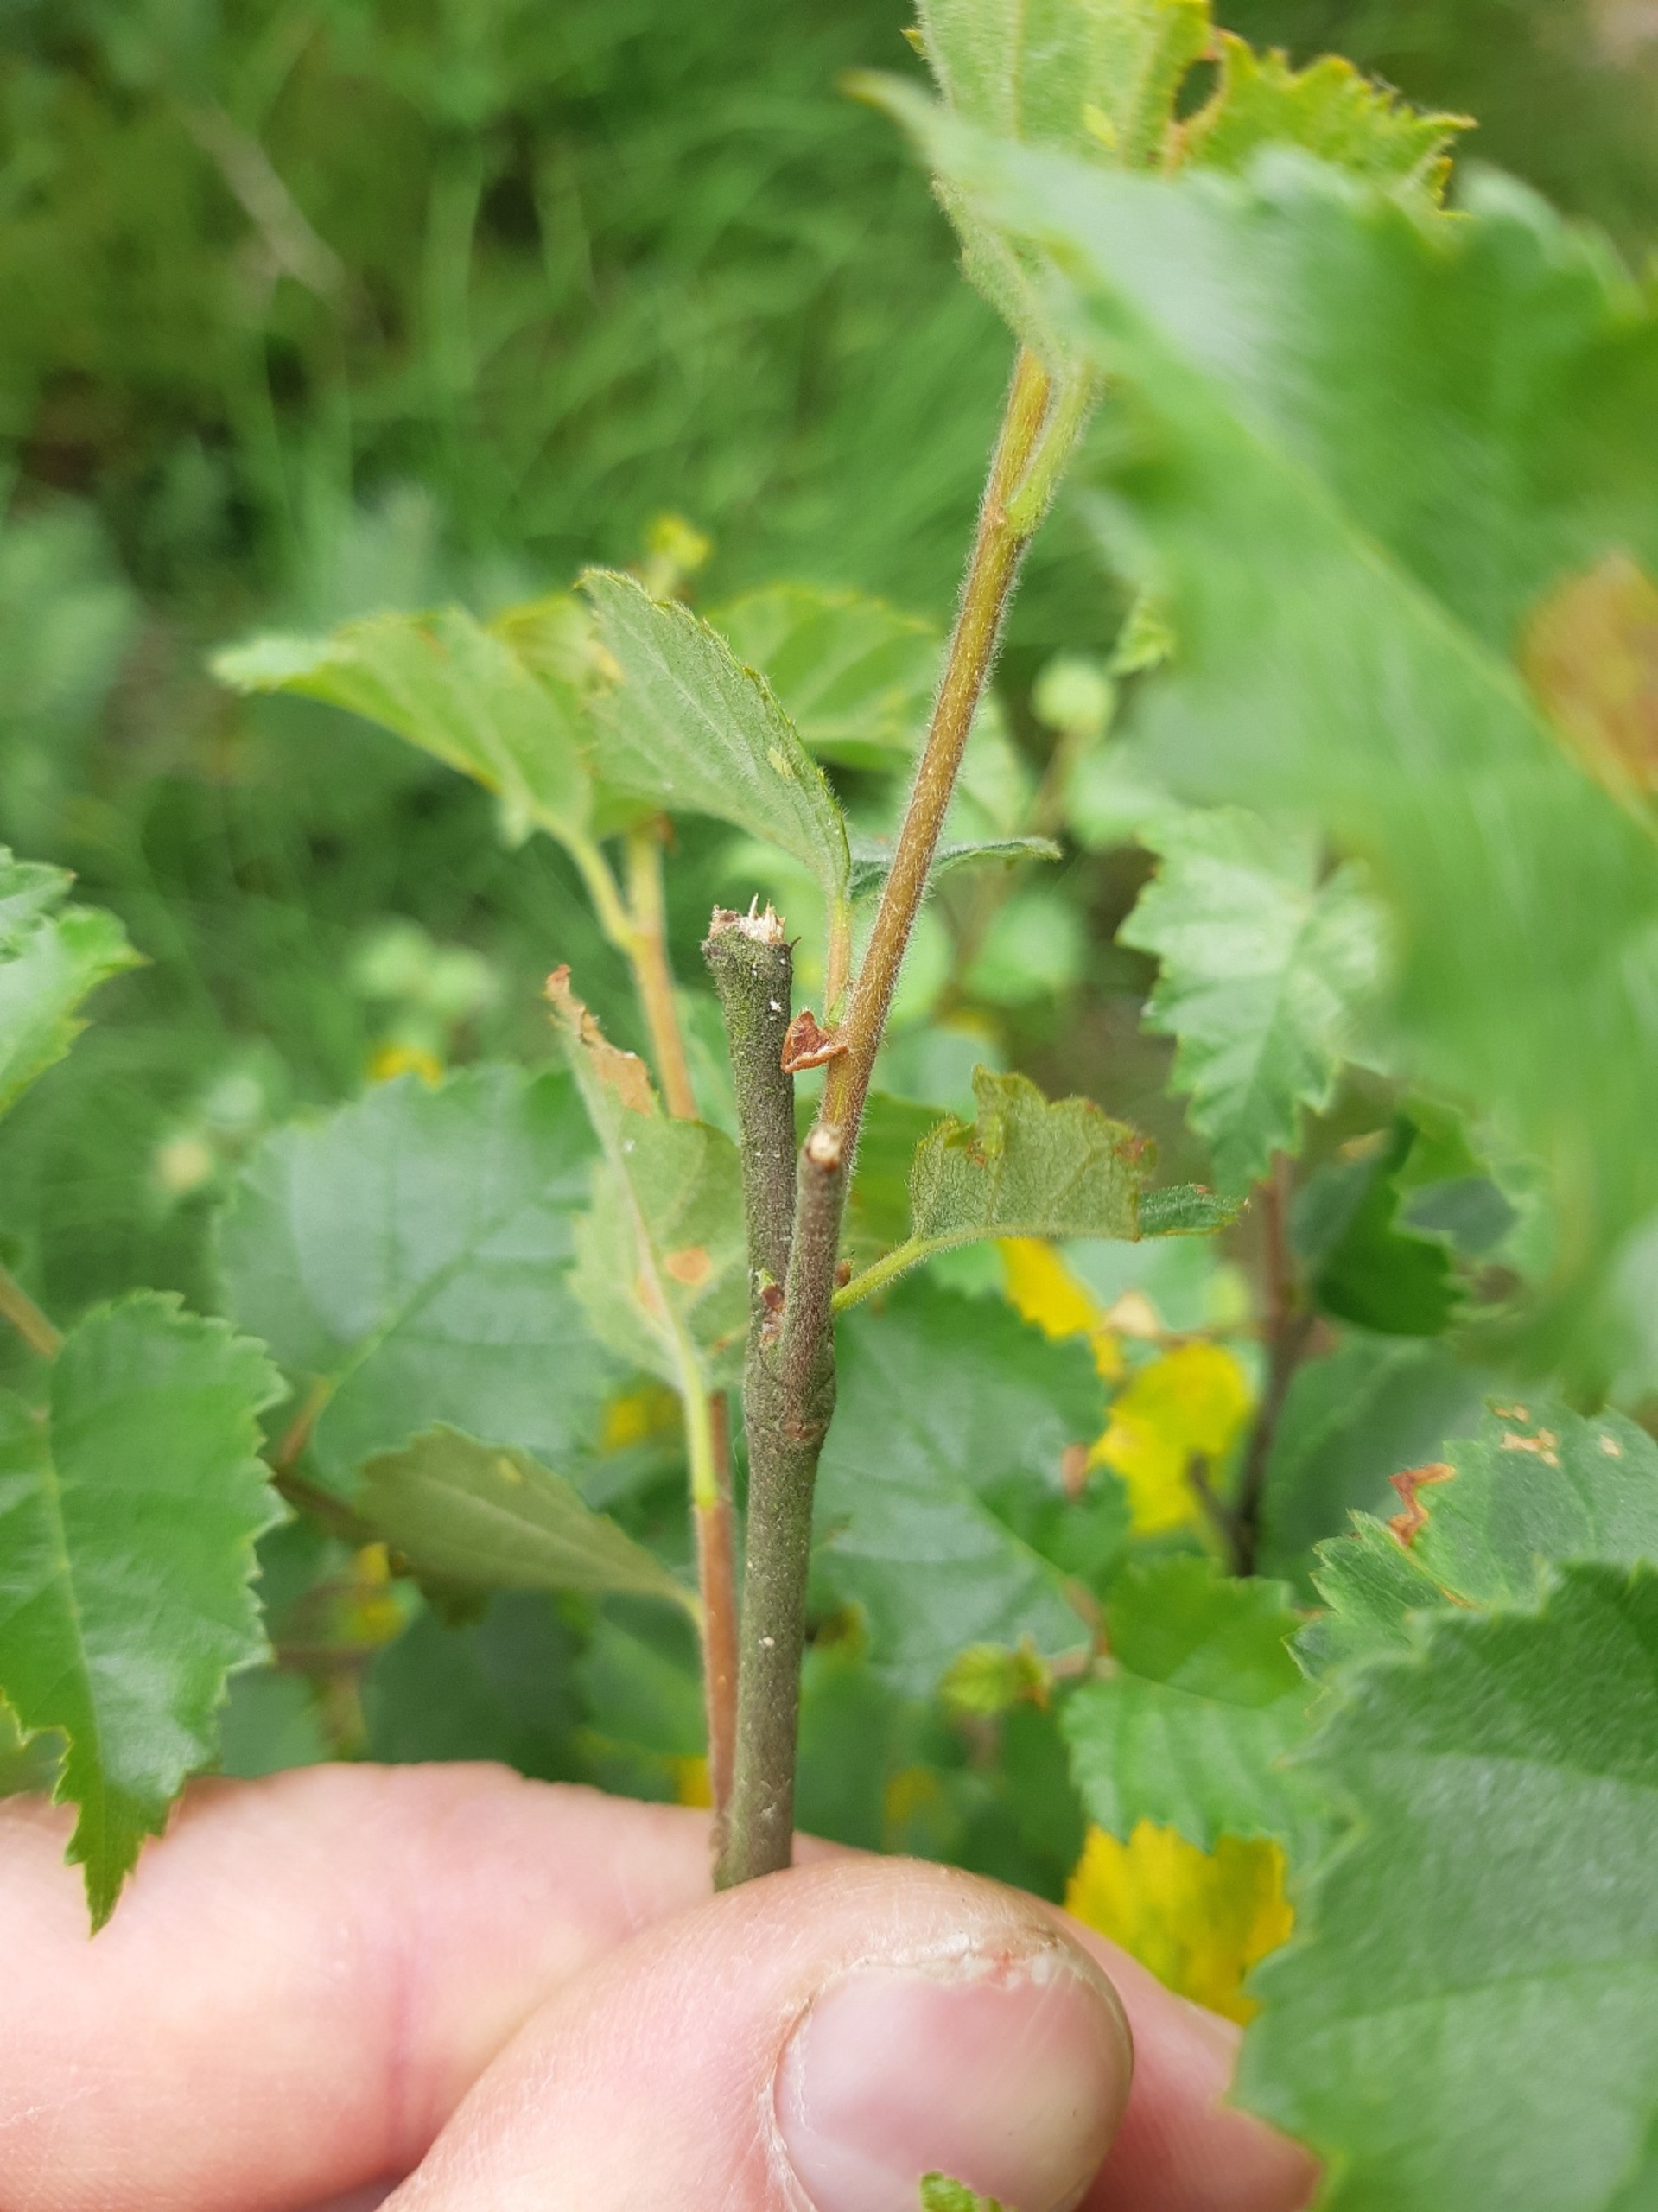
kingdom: Plantae
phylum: Tracheophyta
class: Magnoliopsida
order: Fagales
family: Betulaceae
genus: Betula
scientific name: Betula pubescens
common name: Dun-birk
